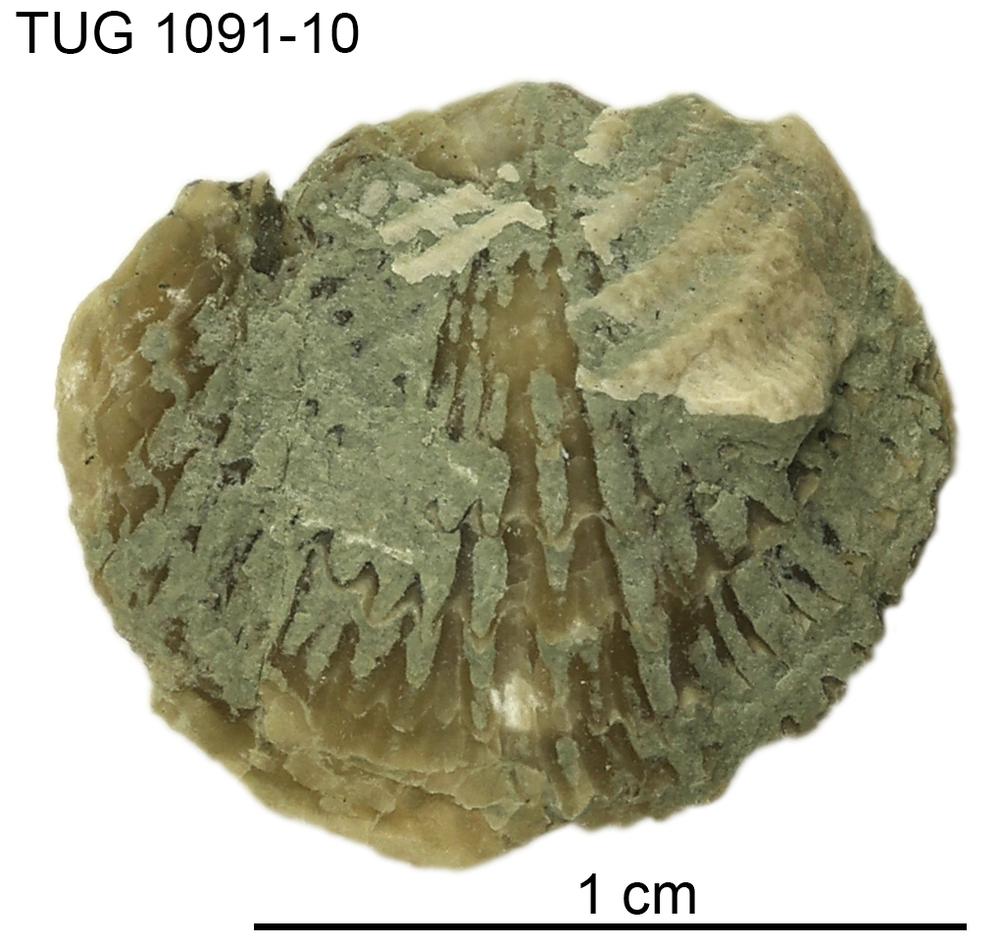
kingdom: Animalia
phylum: Brachiopoda
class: Rhynchonellata
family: Atrypidae
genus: Atrypa
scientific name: Atrypa
